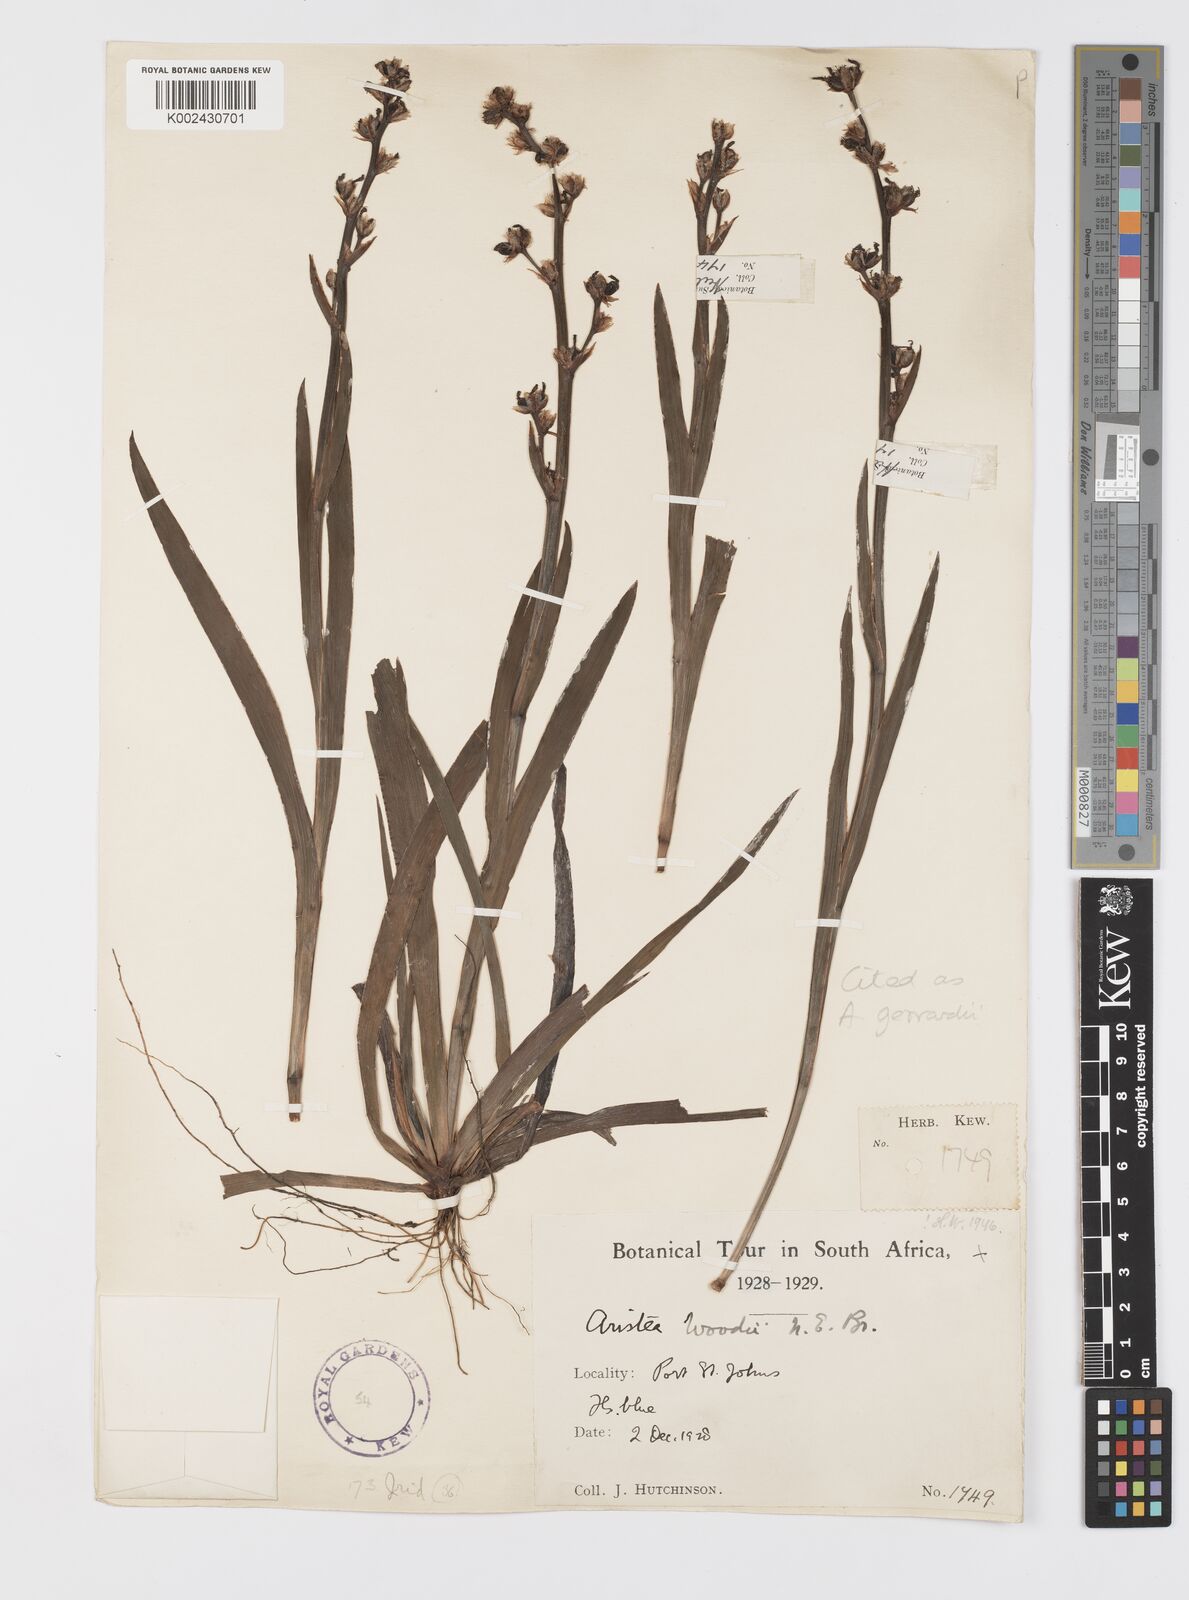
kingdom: Plantae
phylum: Tracheophyta
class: Liliopsida
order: Asparagales
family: Iridaceae
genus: Aristea
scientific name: Aristea compressa
